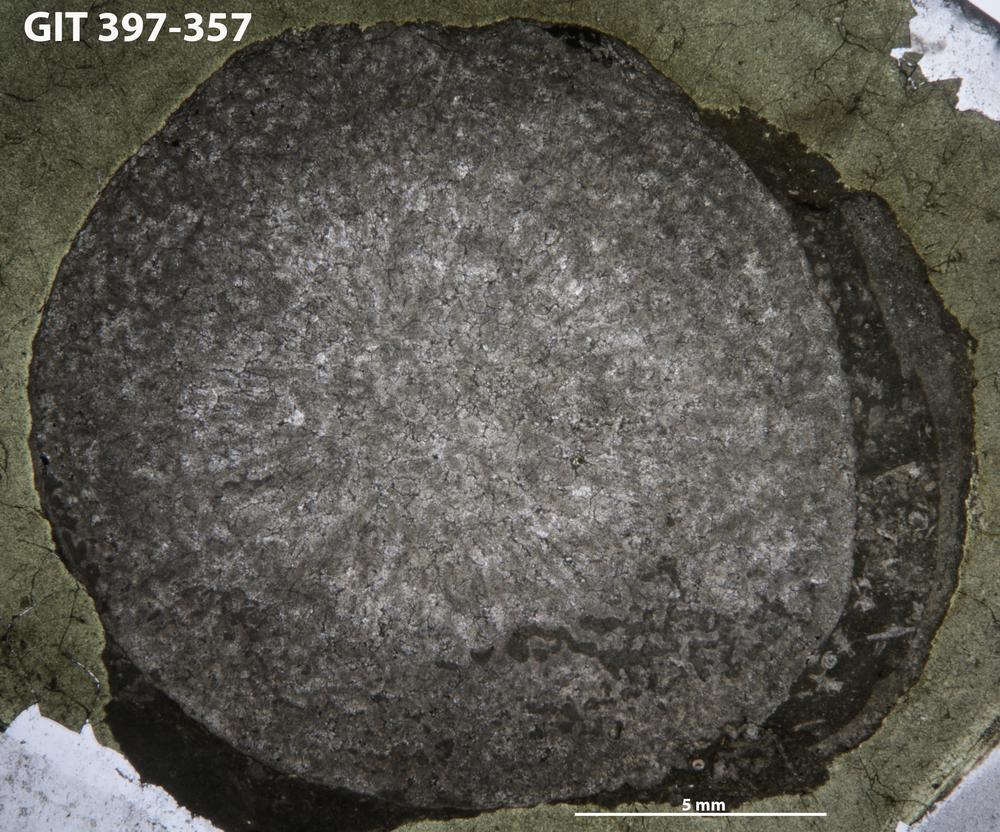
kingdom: Animalia
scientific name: Animalia
